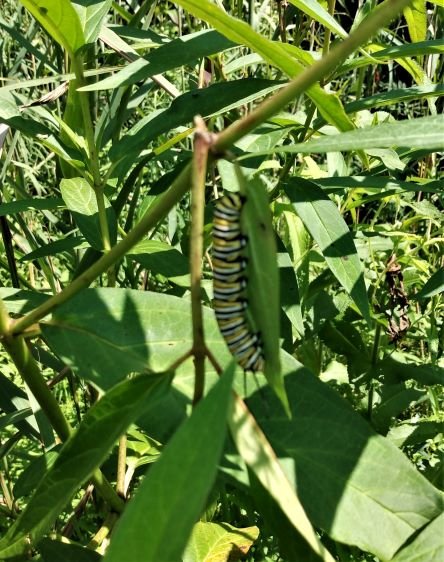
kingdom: Animalia
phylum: Arthropoda
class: Insecta
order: Lepidoptera
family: Nymphalidae
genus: Danaus
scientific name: Danaus plexippus
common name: Monarch
